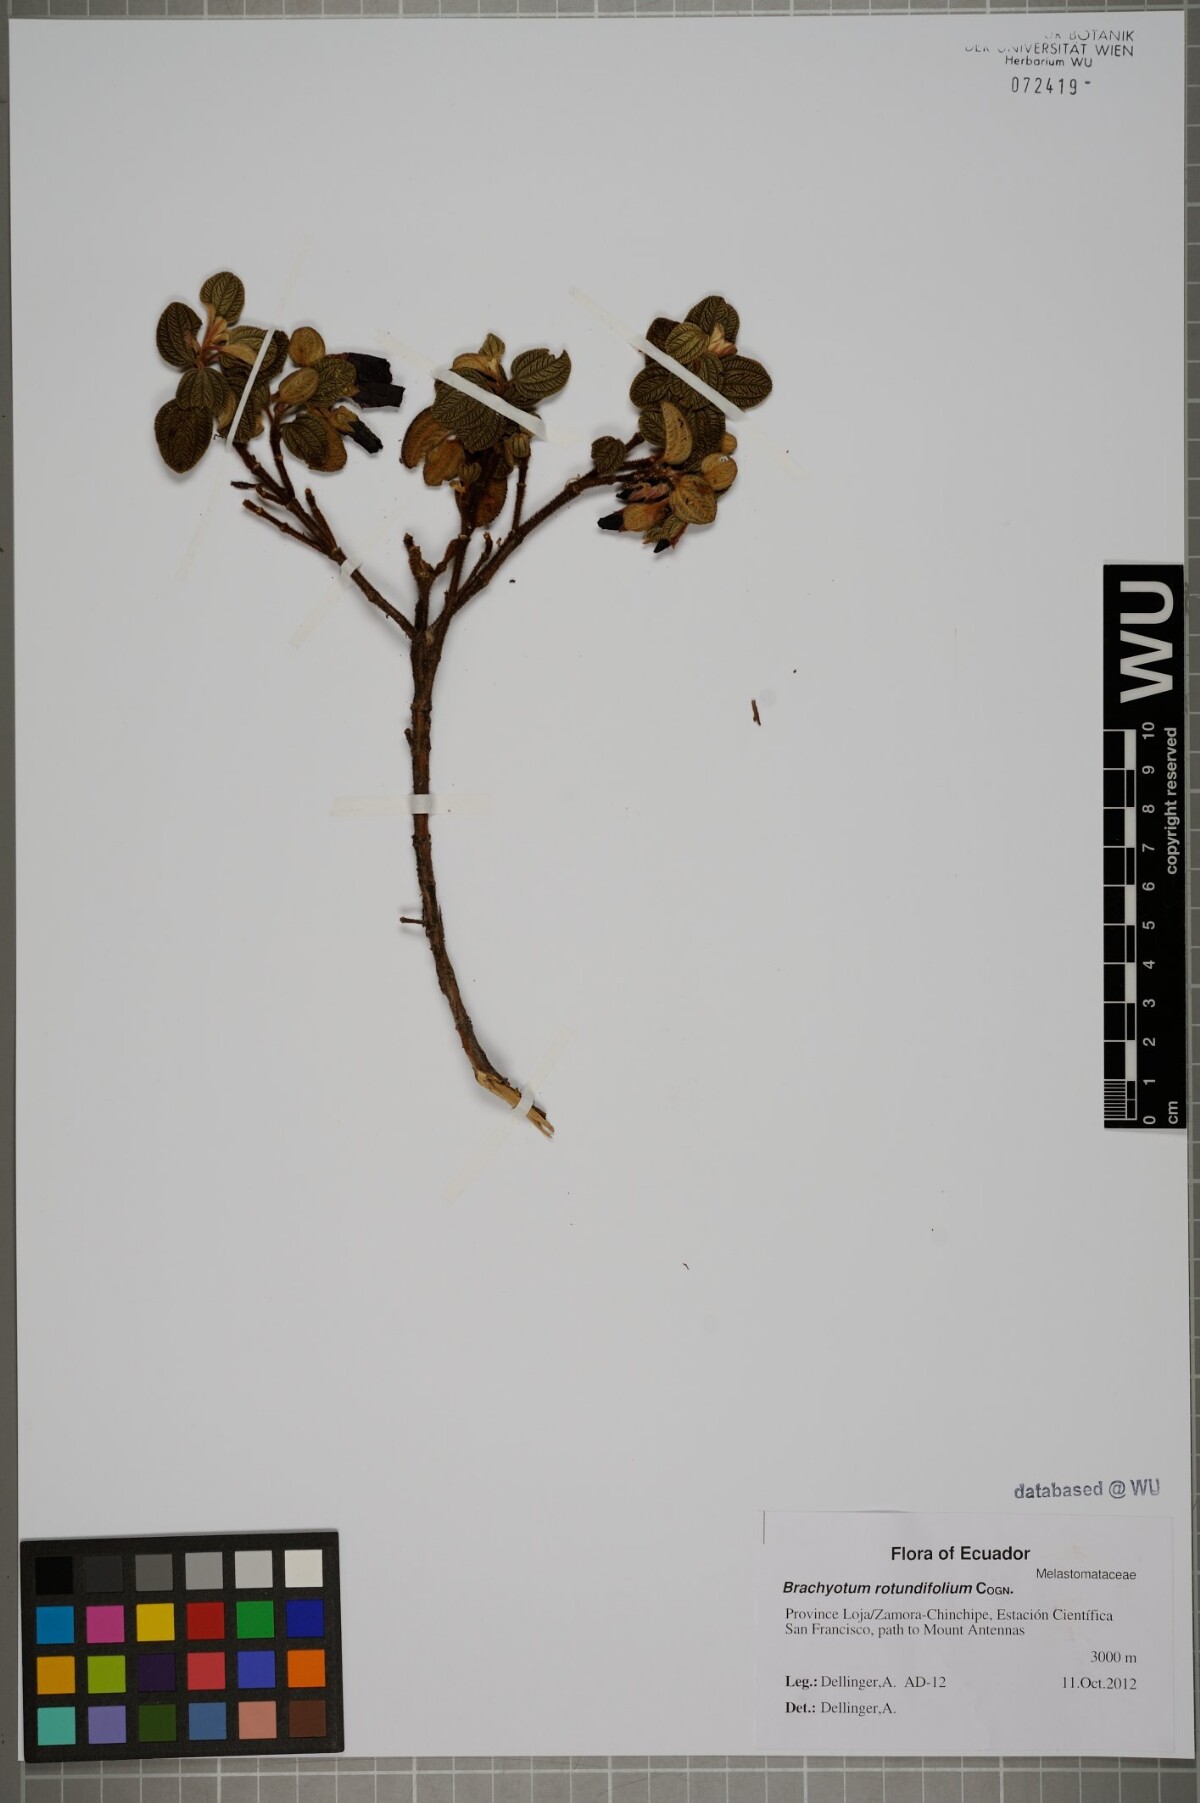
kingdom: Plantae
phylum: Tracheophyta
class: Magnoliopsida
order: Myrtales
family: Melastomataceae
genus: Brachyotum
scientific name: Brachyotum rotundifolium
